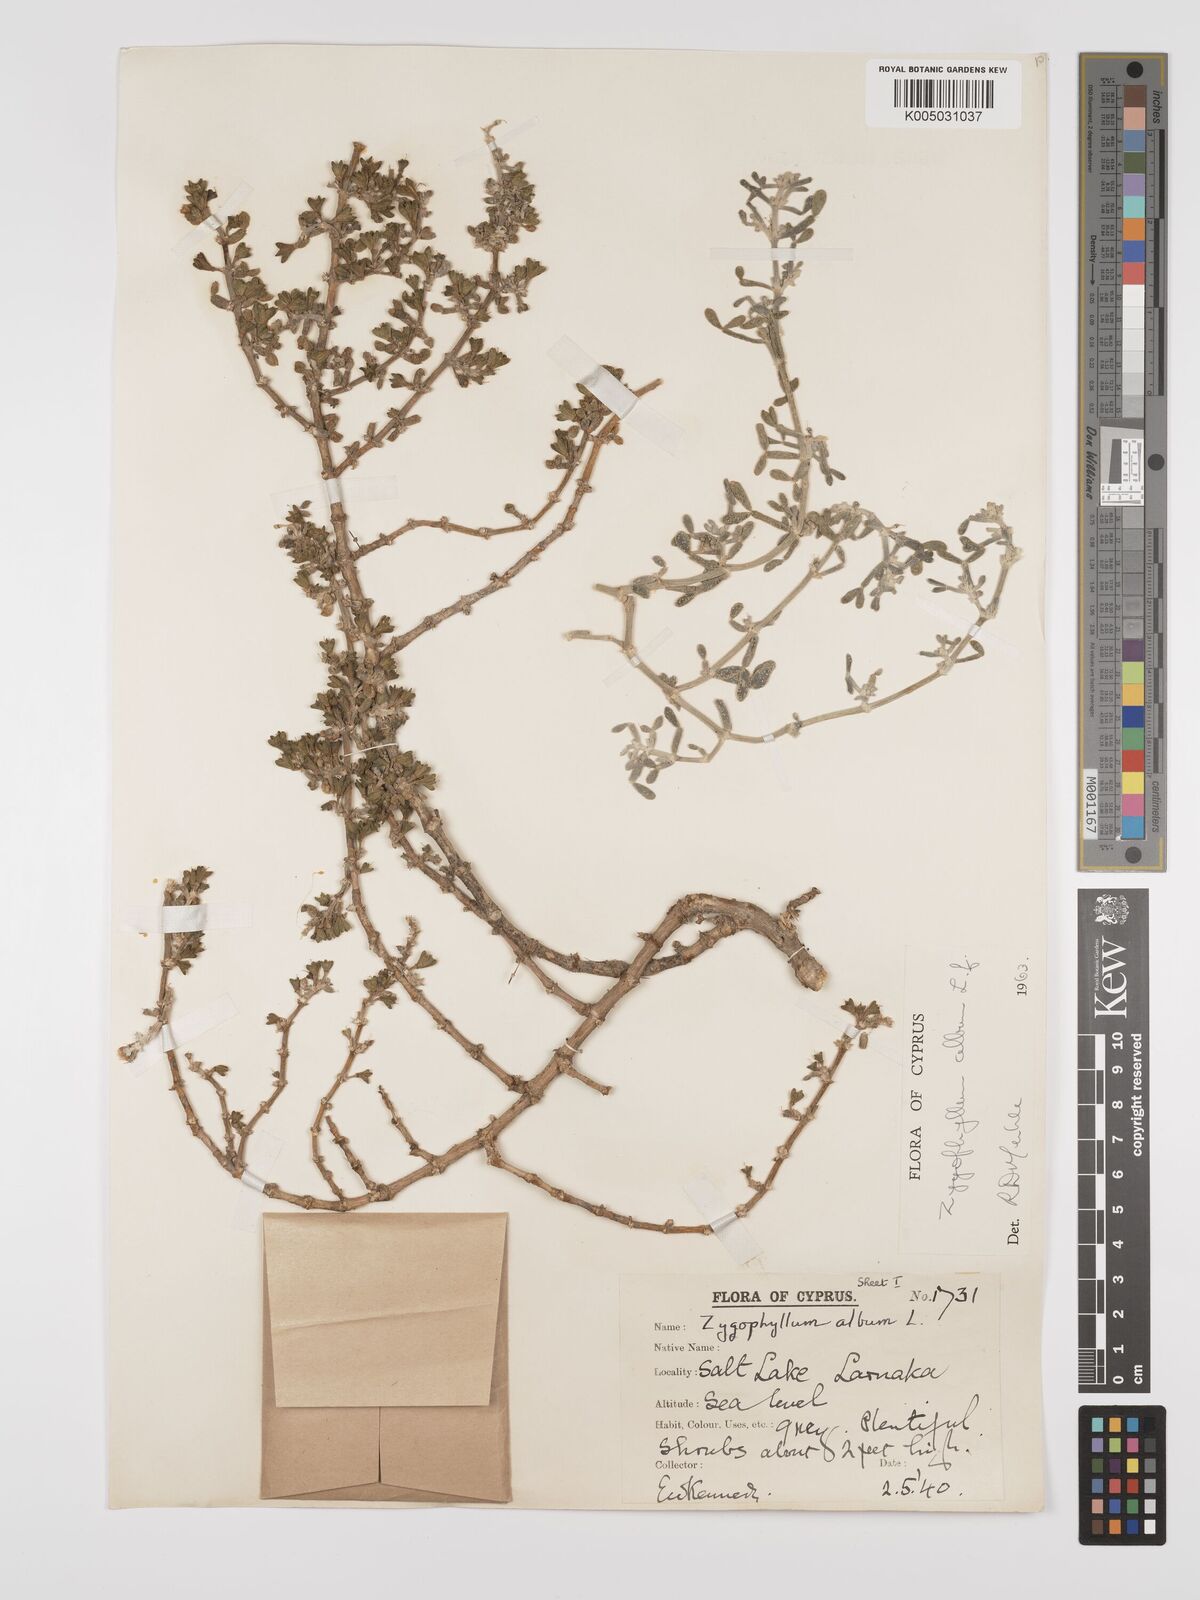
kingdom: Plantae
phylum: Tracheophyta
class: Magnoliopsida
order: Zygophyllales
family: Zygophyllaceae
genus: Zygophyllum
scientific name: Zygophyllum
